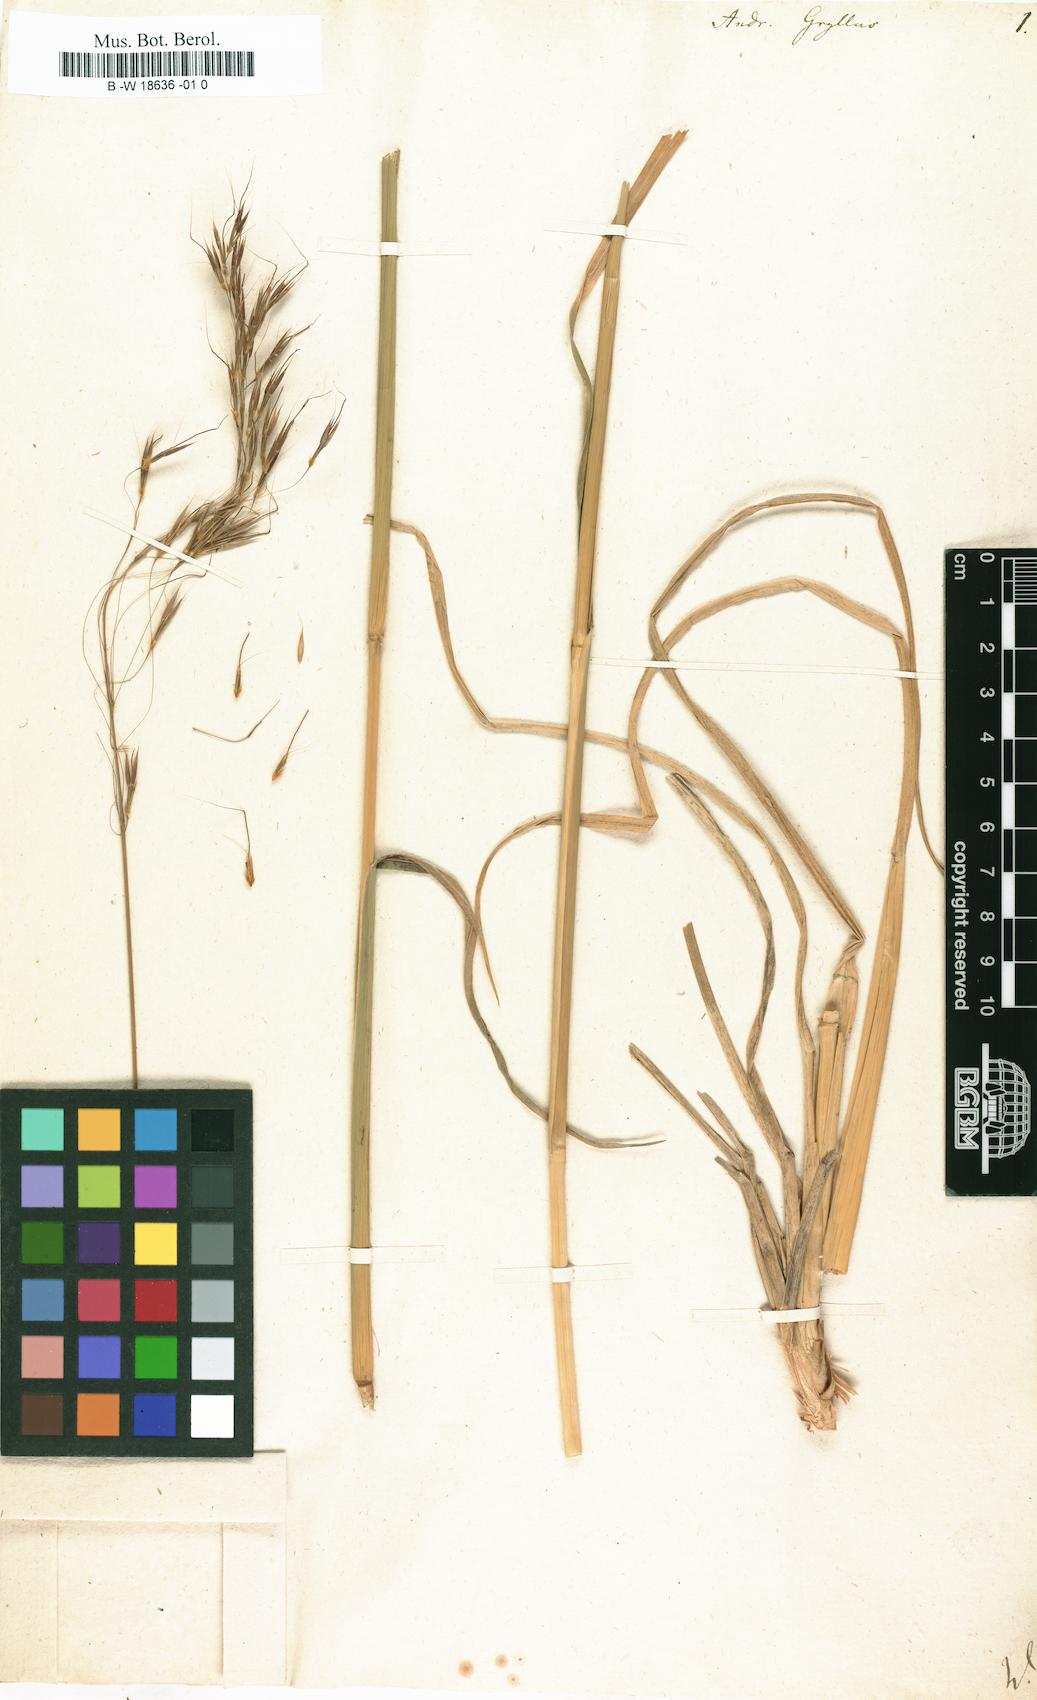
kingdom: Plantae
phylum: Tracheophyta
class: Liliopsida
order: Poales
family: Poaceae
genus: Chrysopogon
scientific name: Chrysopogon gryllus
